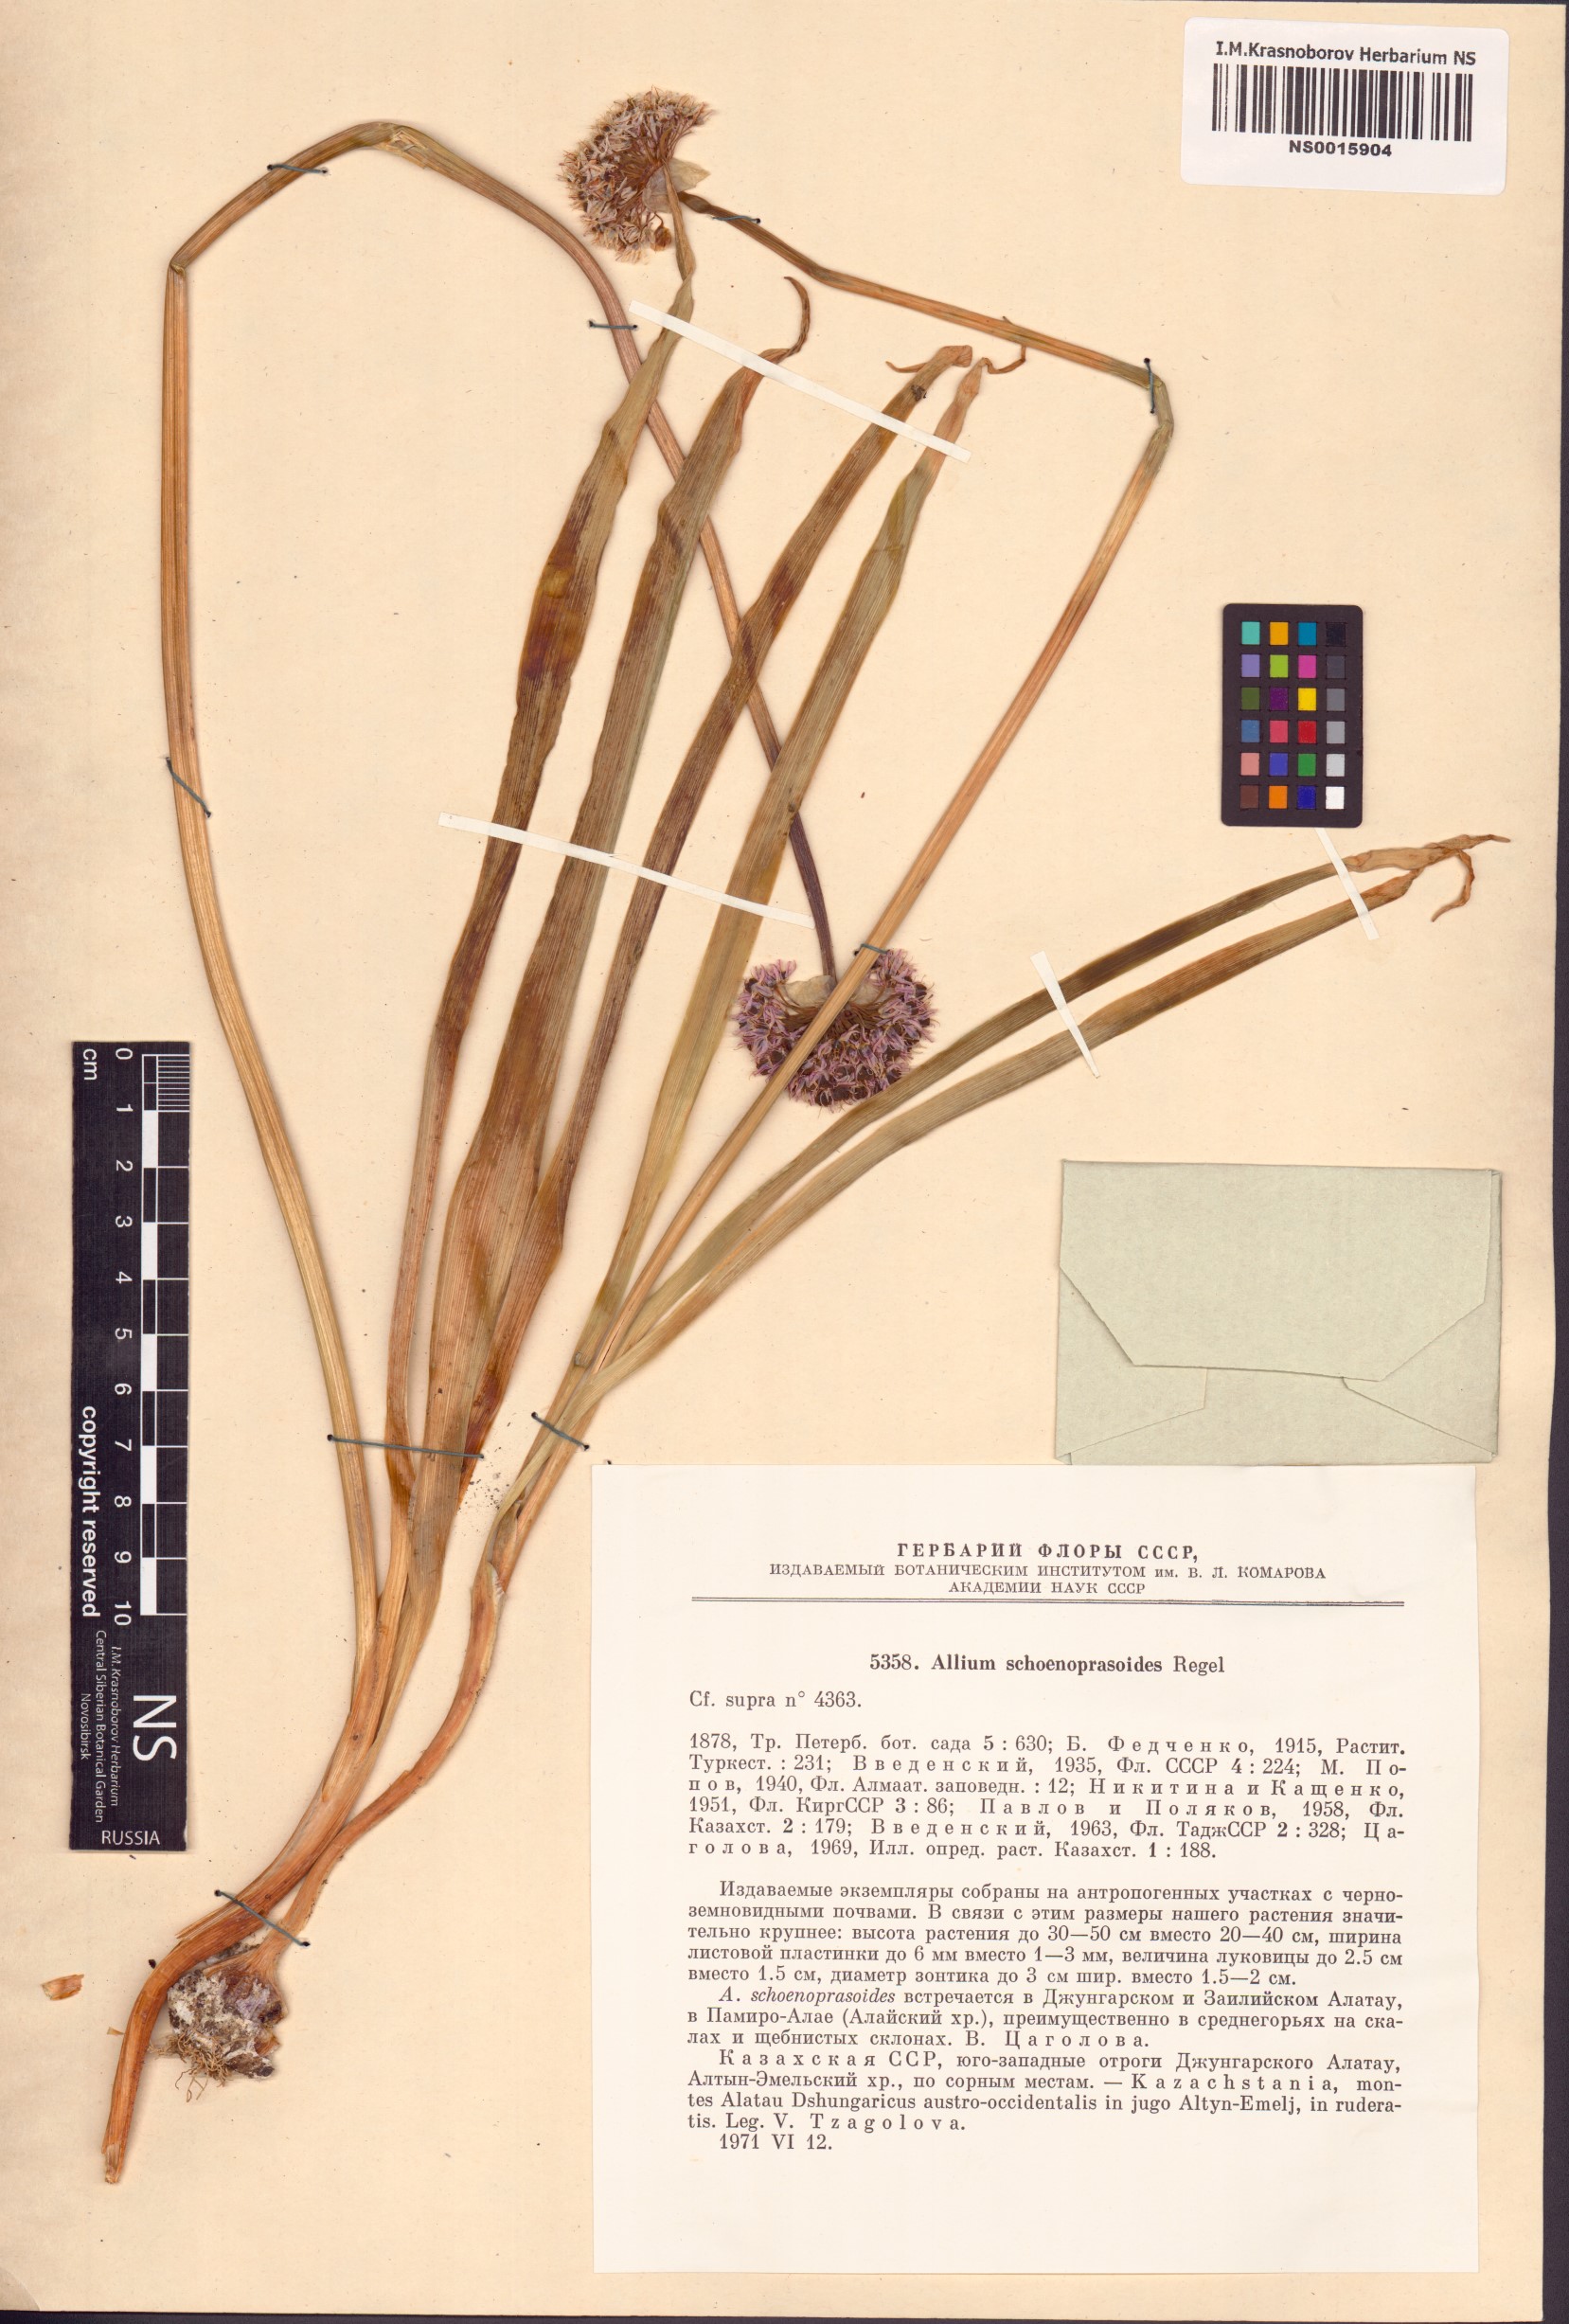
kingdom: Plantae
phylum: Tracheophyta
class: Liliopsida
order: Asparagales
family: Amaryllidaceae
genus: Allium
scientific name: Allium schoenoprasoides
